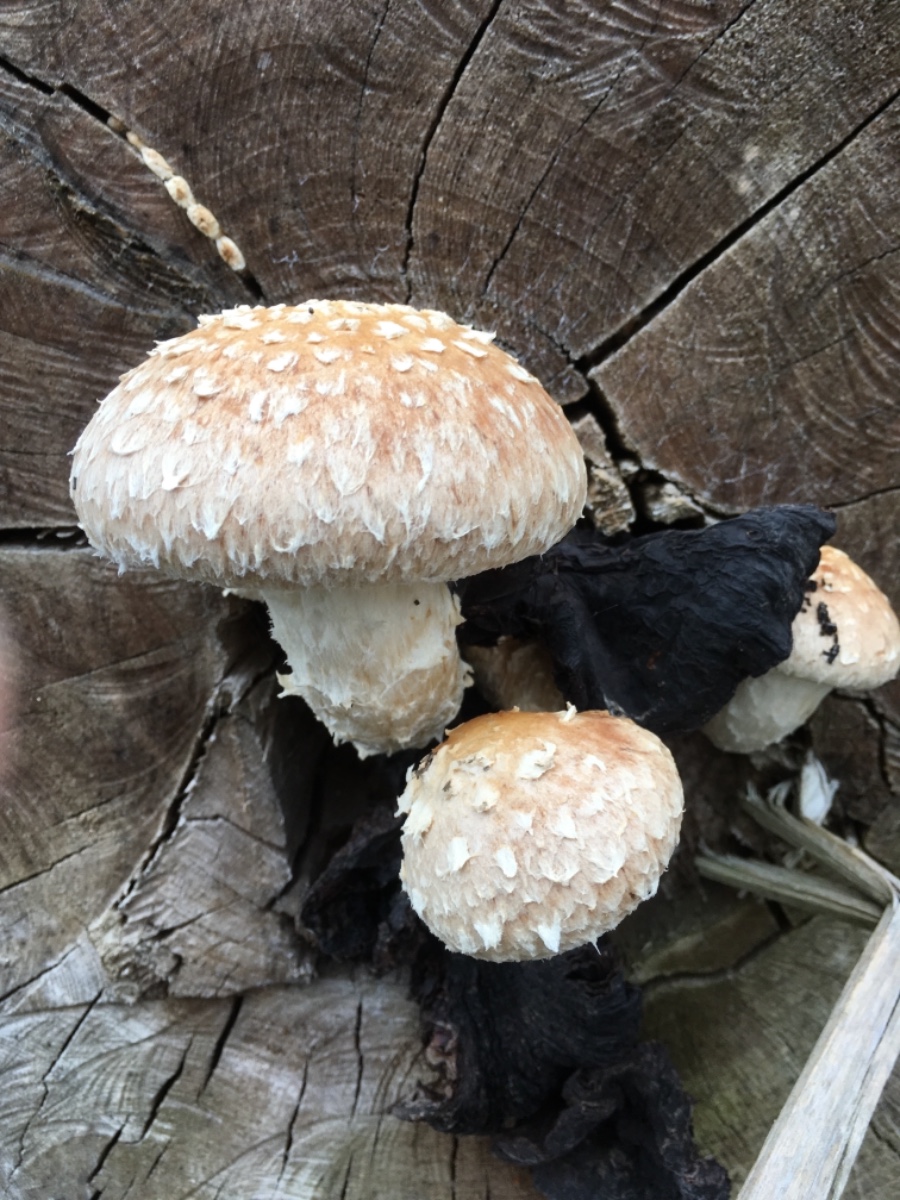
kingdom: Fungi
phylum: Basidiomycota
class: Agaricomycetes
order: Agaricales
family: Strophariaceae
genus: Pholiota
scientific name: Pholiota populnea
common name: poppel-kæmpeskælhat
